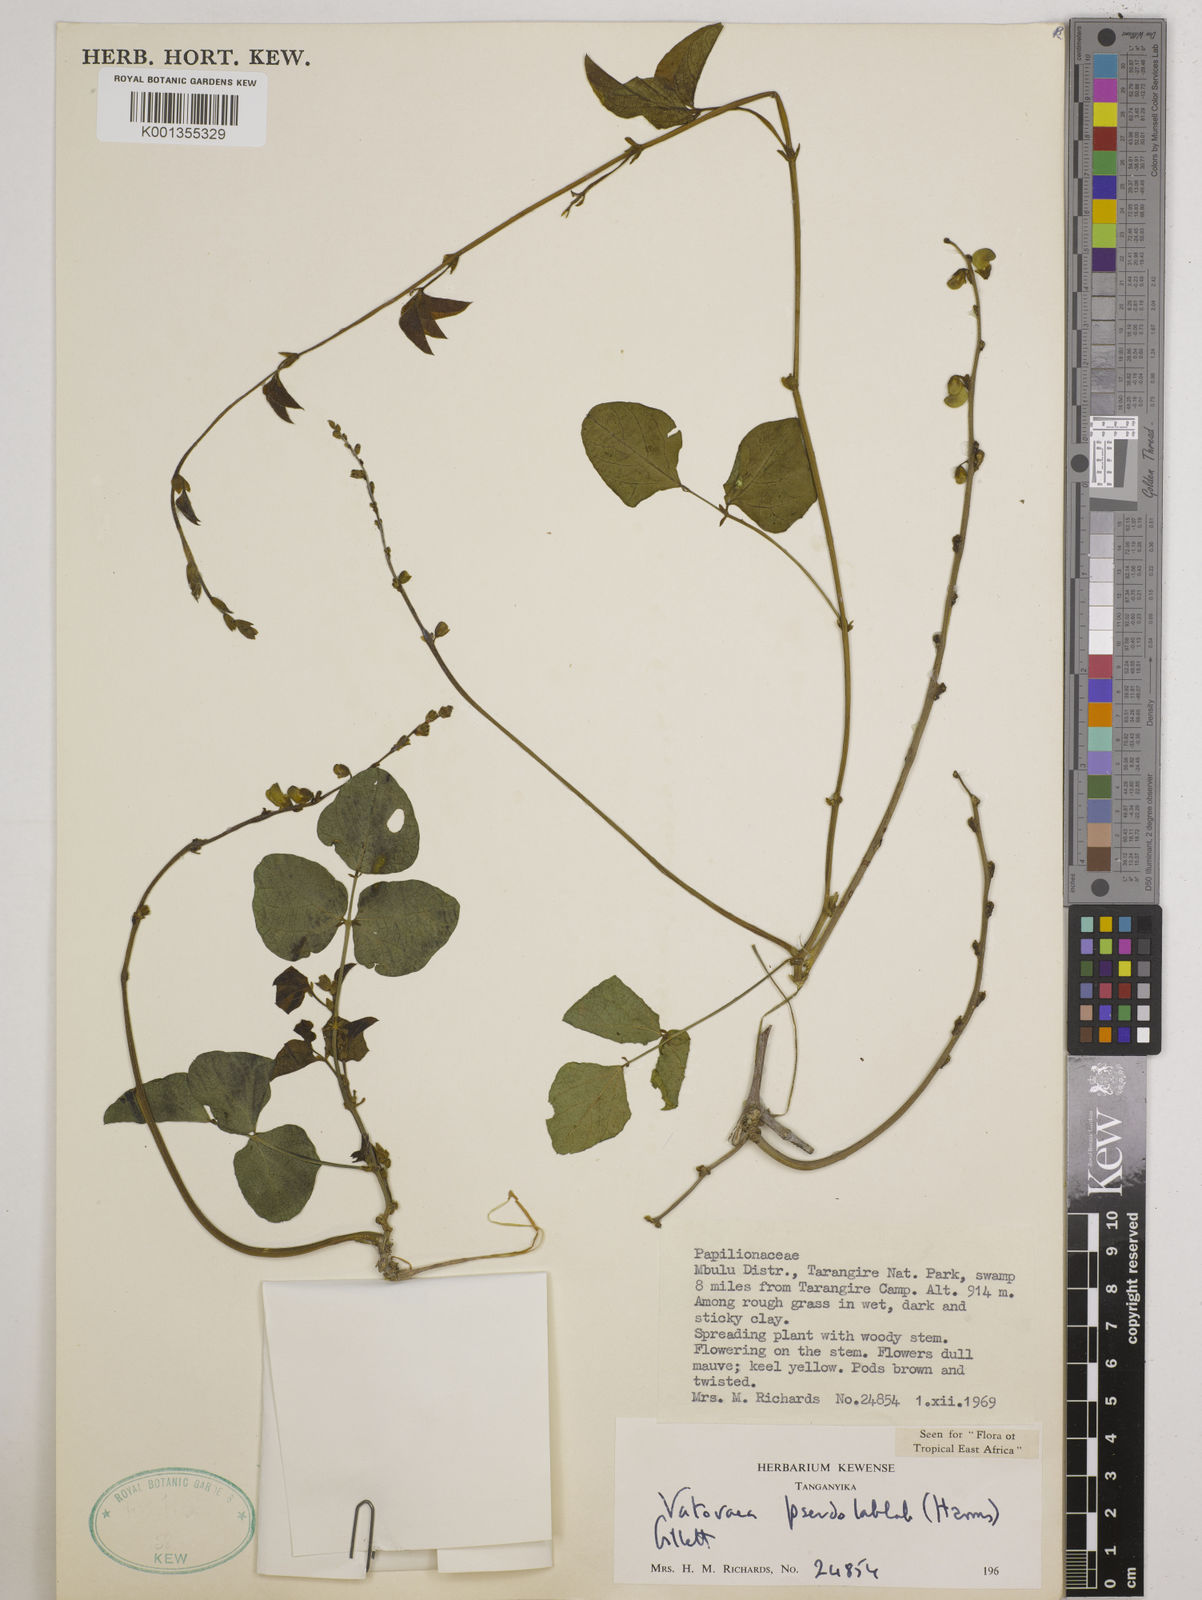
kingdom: Plantae
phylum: Tracheophyta
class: Magnoliopsida
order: Fabales
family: Fabaceae
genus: Vatovaea
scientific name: Vatovaea pseudolablab
